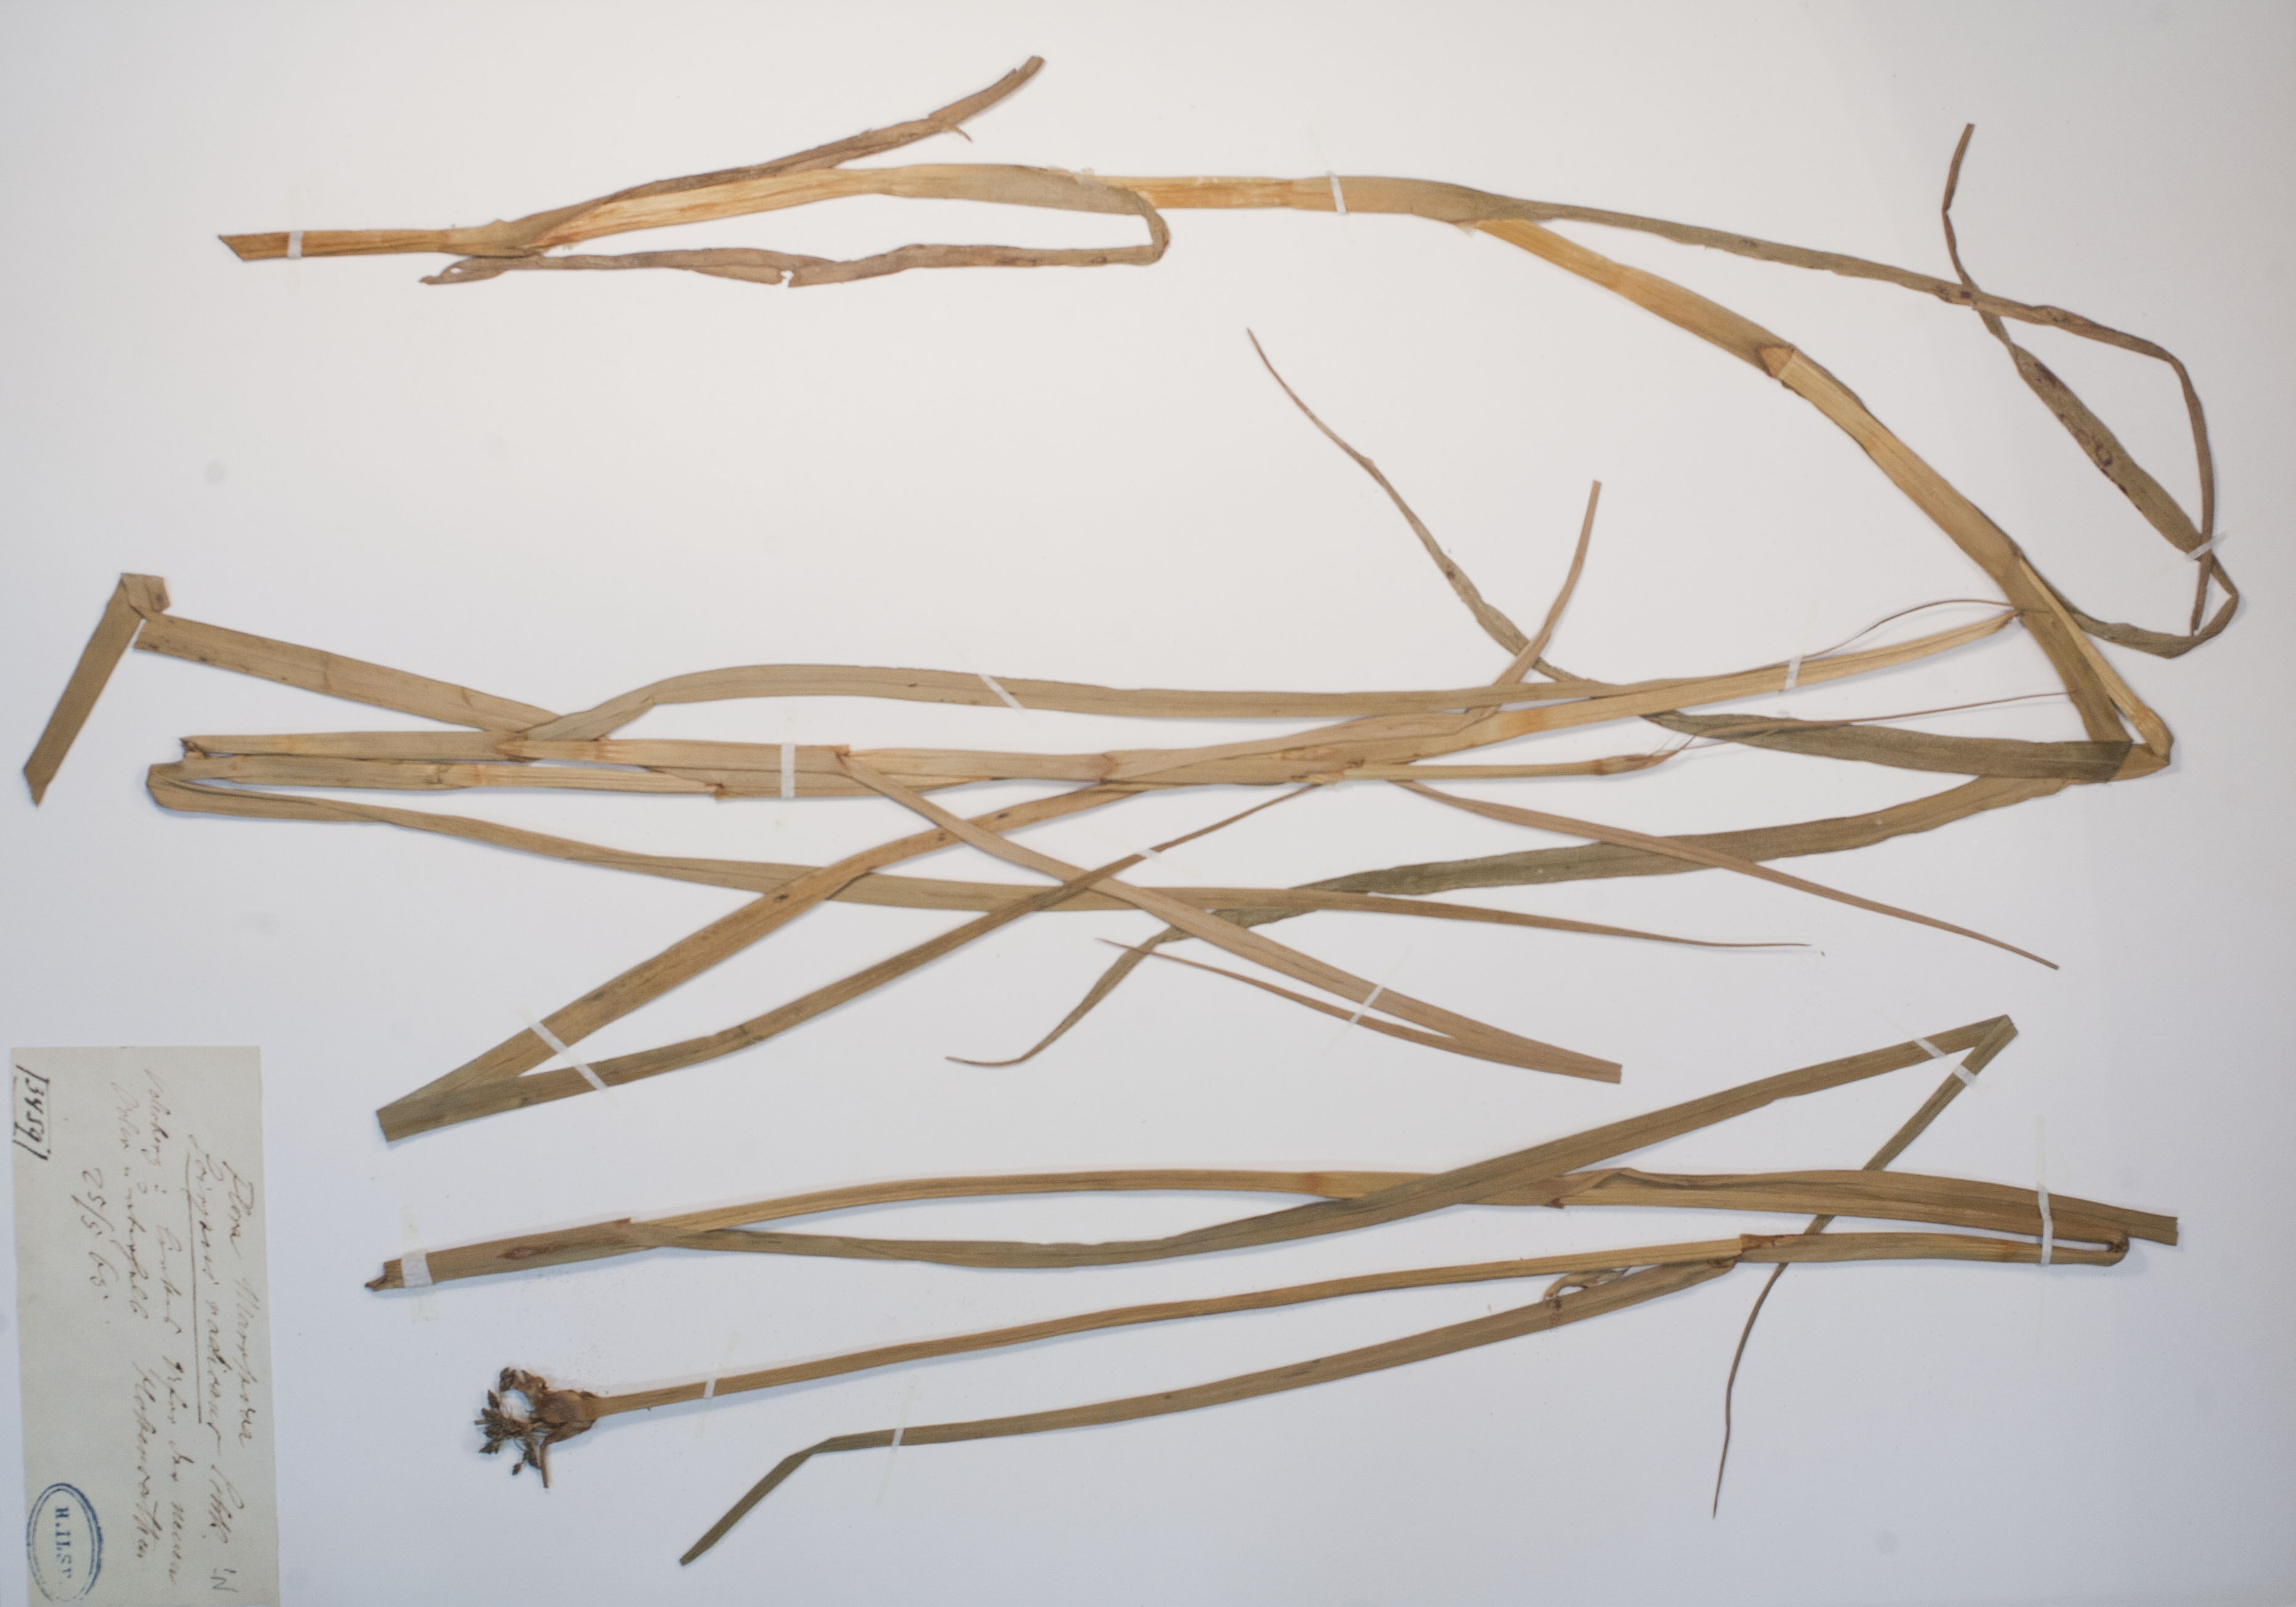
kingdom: Plantae
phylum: Tracheophyta
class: Liliopsida
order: Poales
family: Cyperaceae
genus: Scirpus
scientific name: Scirpus radicans
